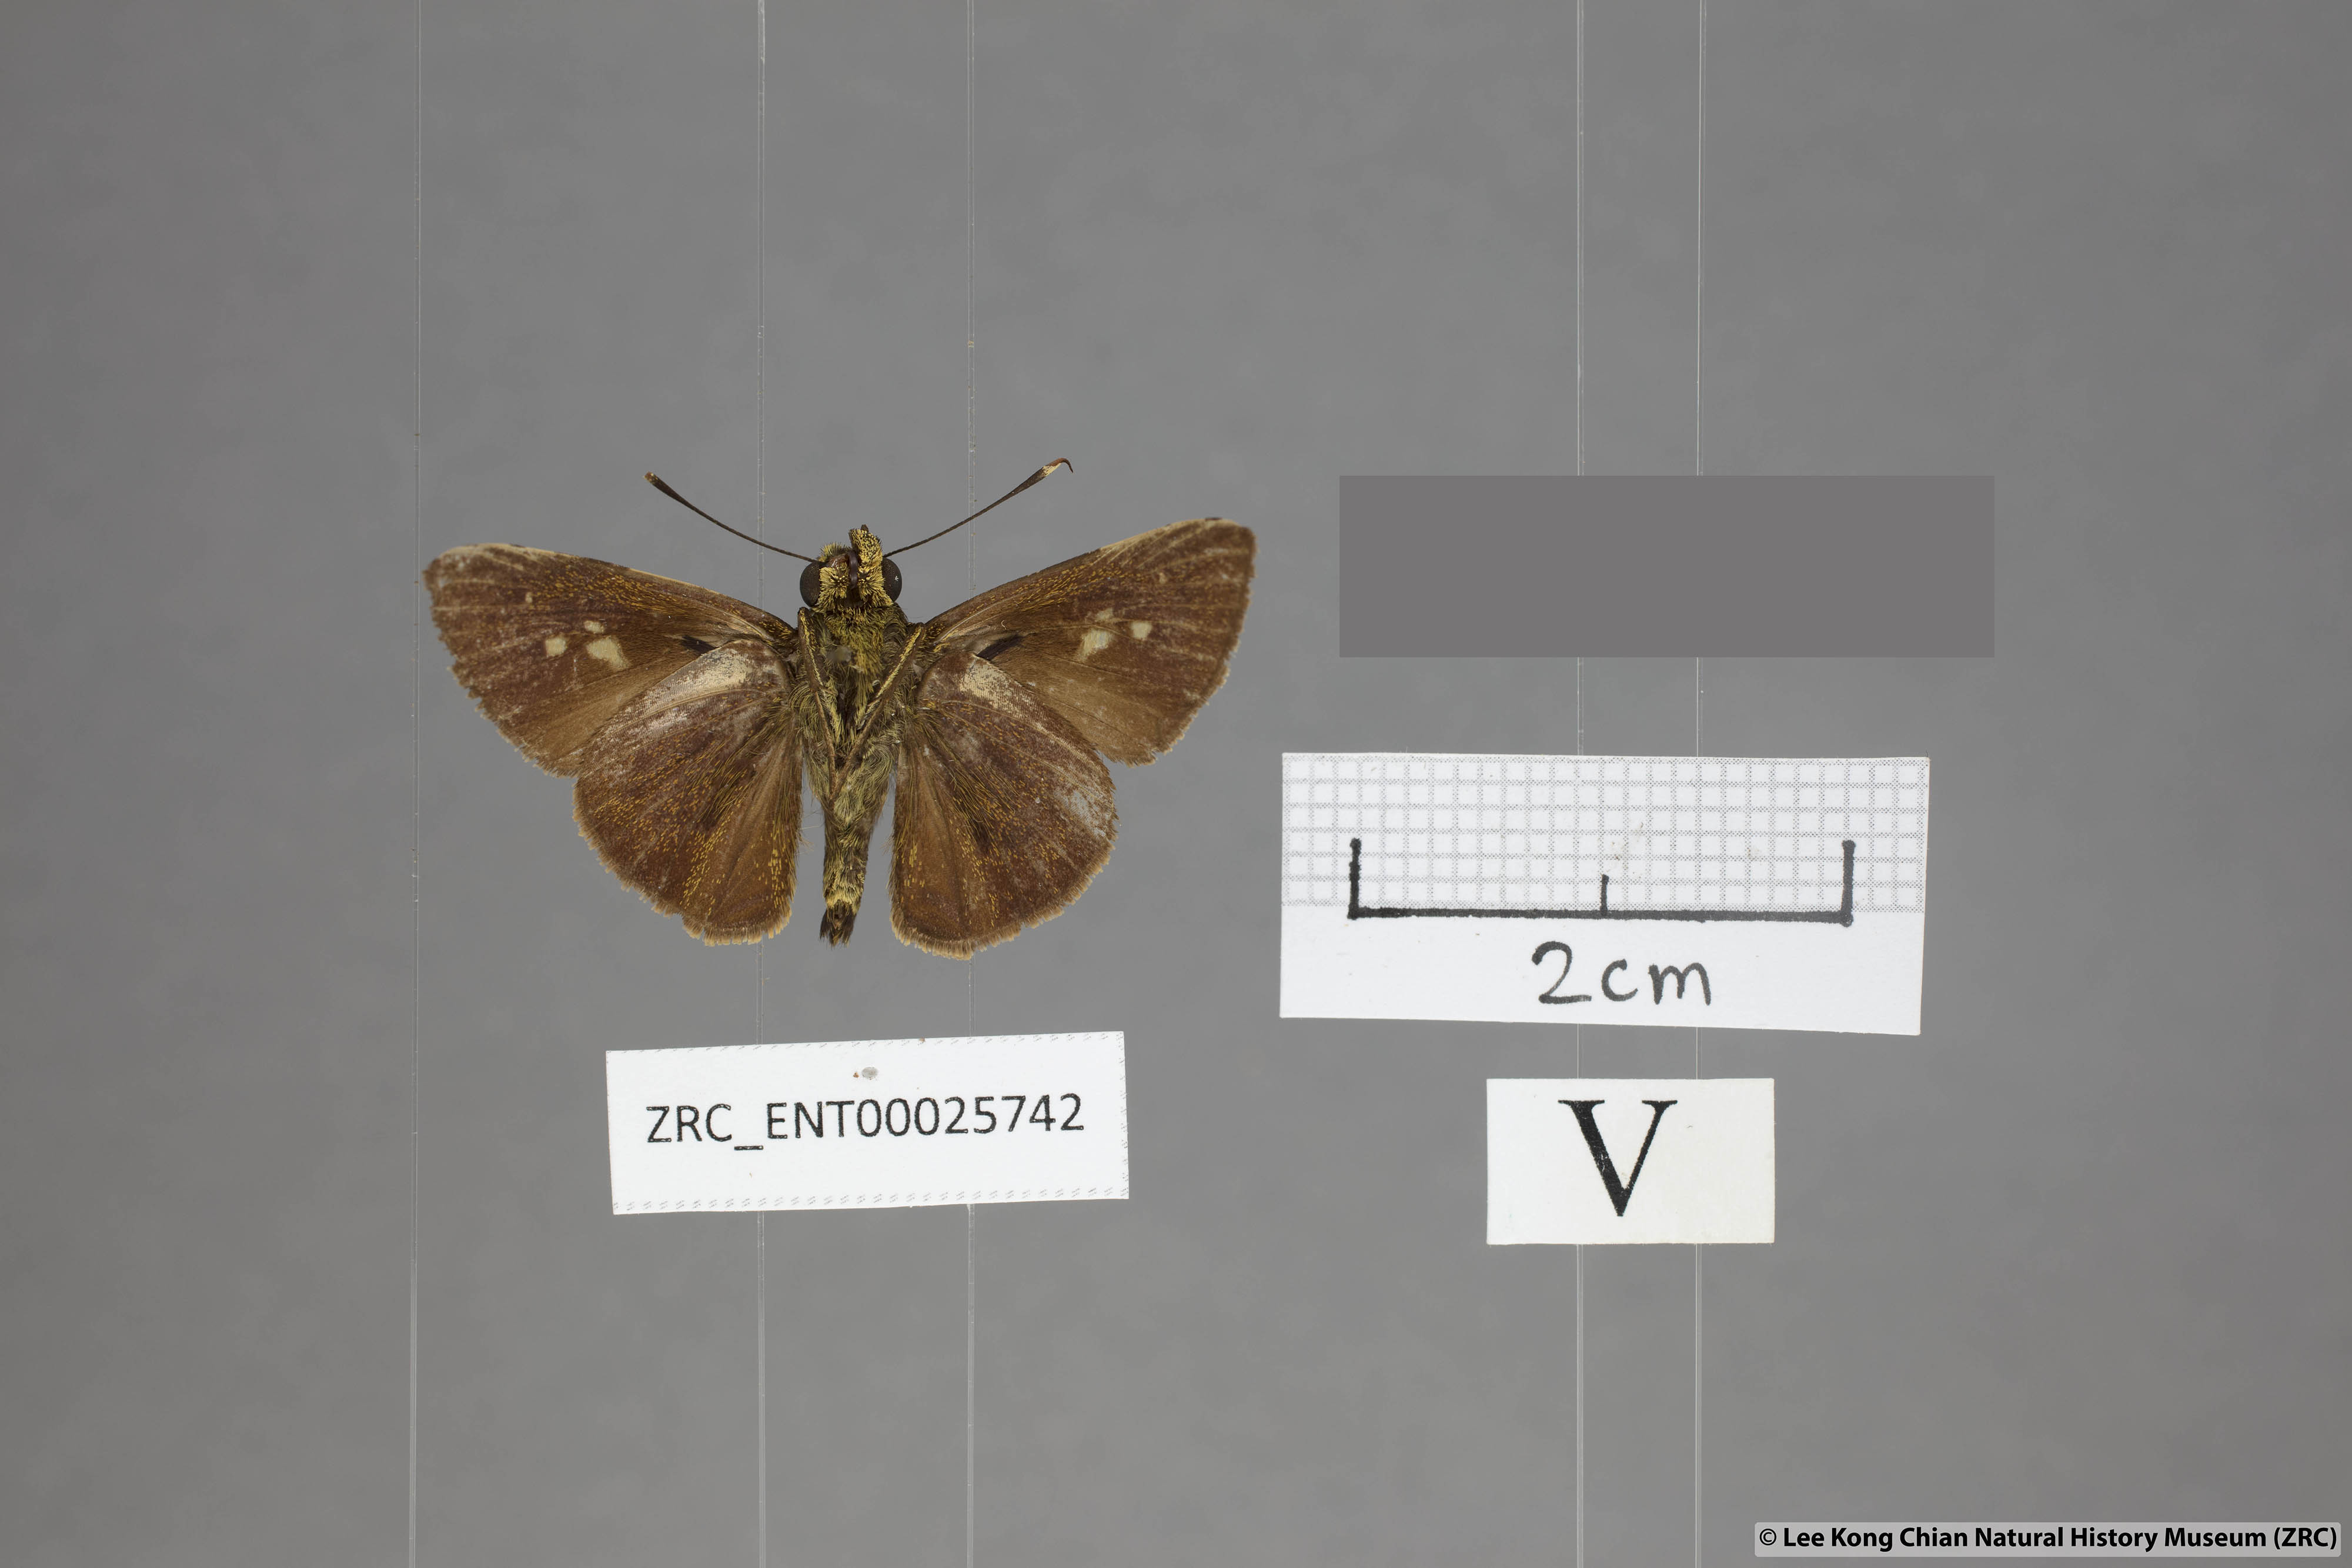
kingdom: Animalia
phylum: Arthropoda
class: Insecta
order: Lepidoptera
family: Hesperiidae
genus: Zographetus
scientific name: Zographetus rama
